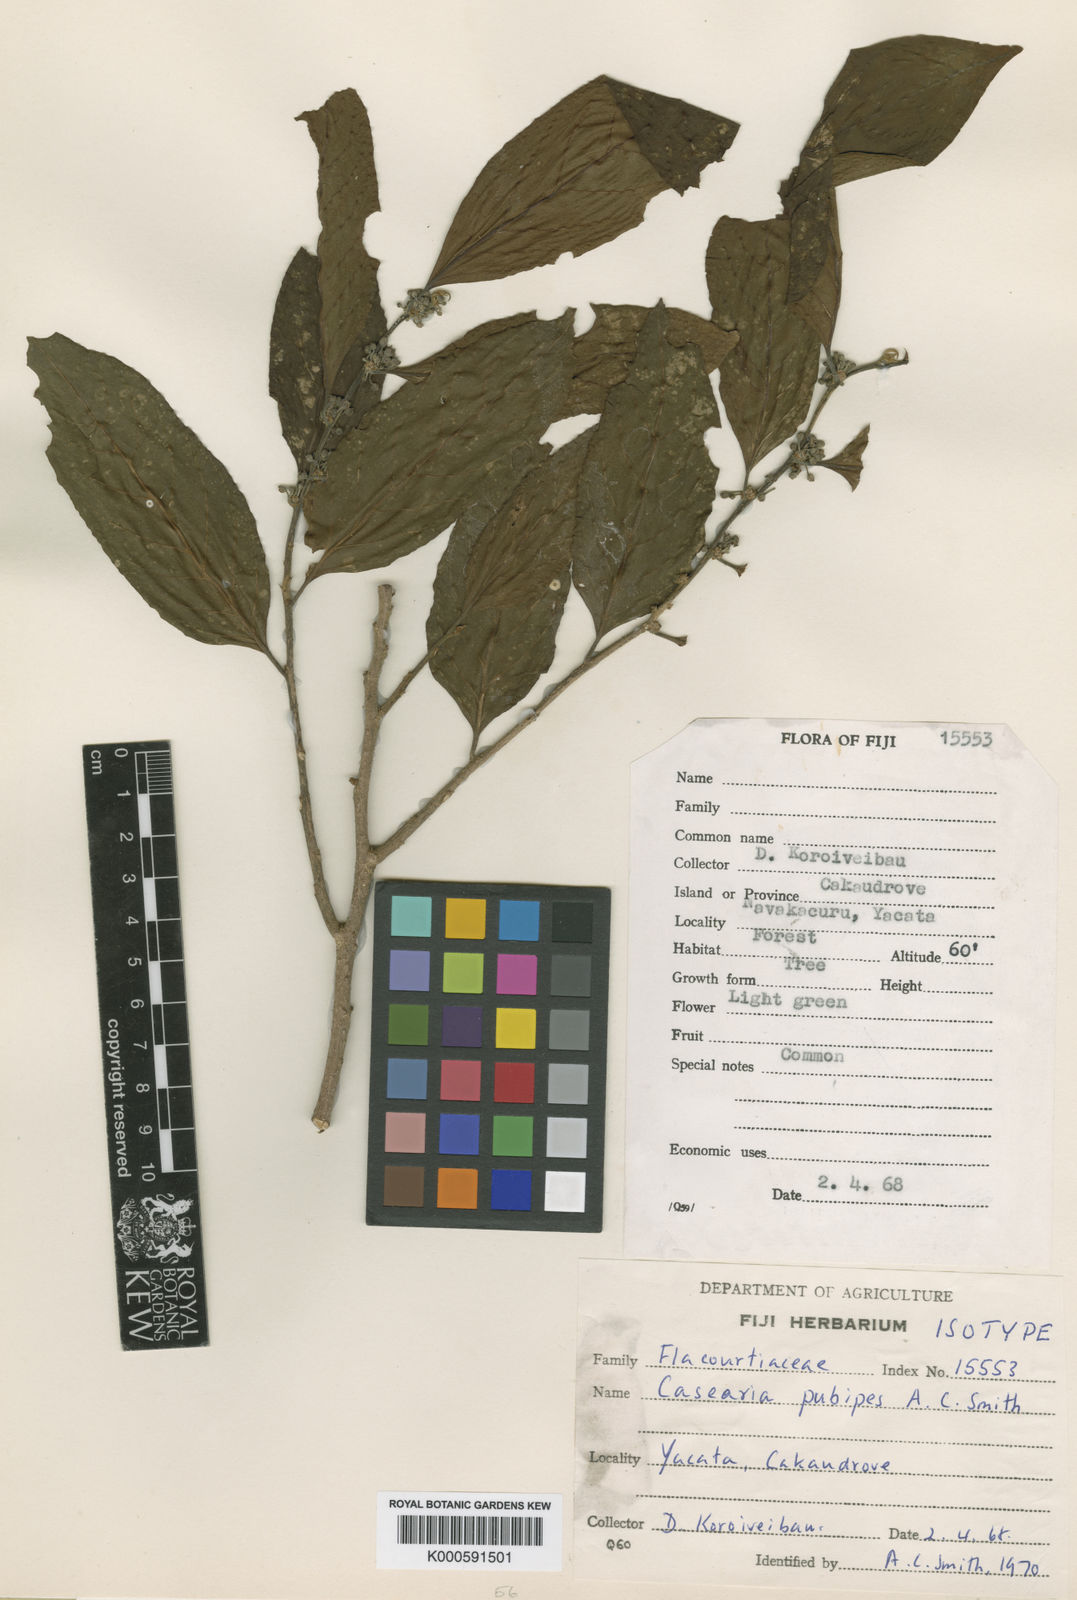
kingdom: Plantae
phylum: Tracheophyta
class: Magnoliopsida
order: Malpighiales
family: Salicaceae
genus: Casearia
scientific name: Casearia pubipes
